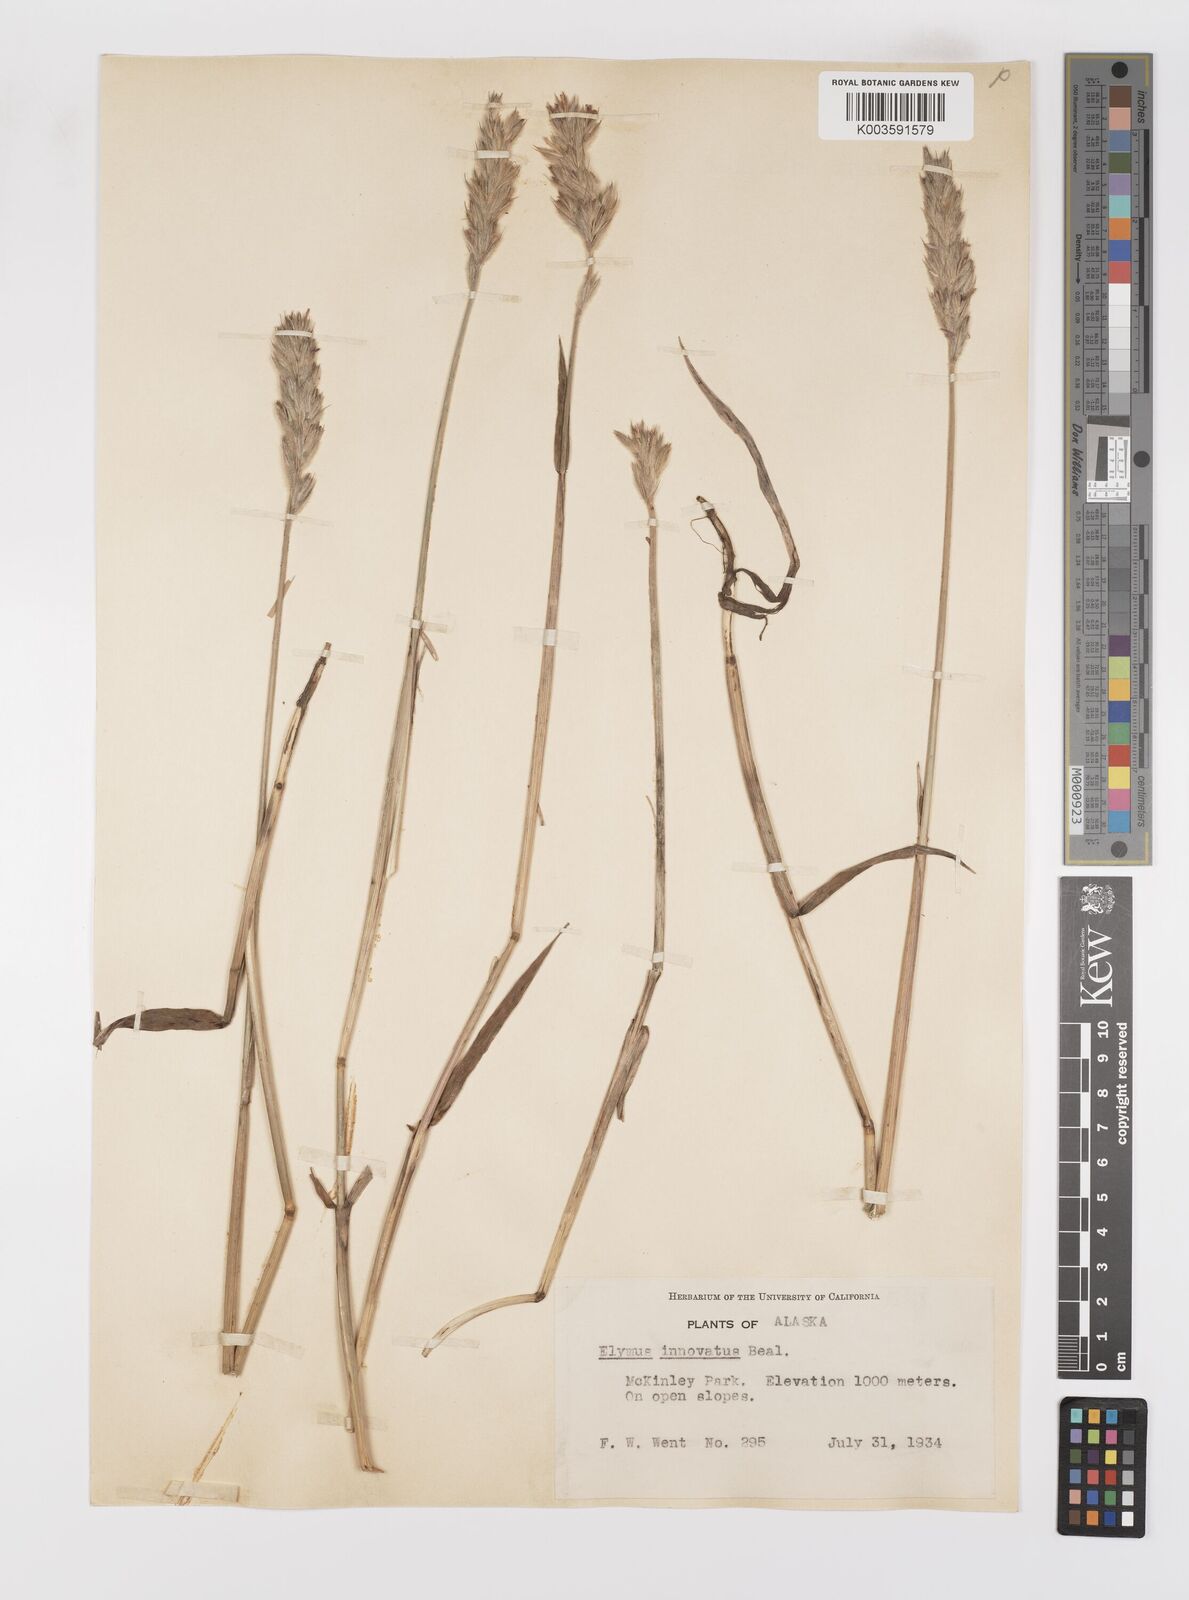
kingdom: Plantae
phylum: Tracheophyta
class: Liliopsida
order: Poales
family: Poaceae
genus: Leymus
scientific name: Leymus innovatus
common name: Boreal wild rye
